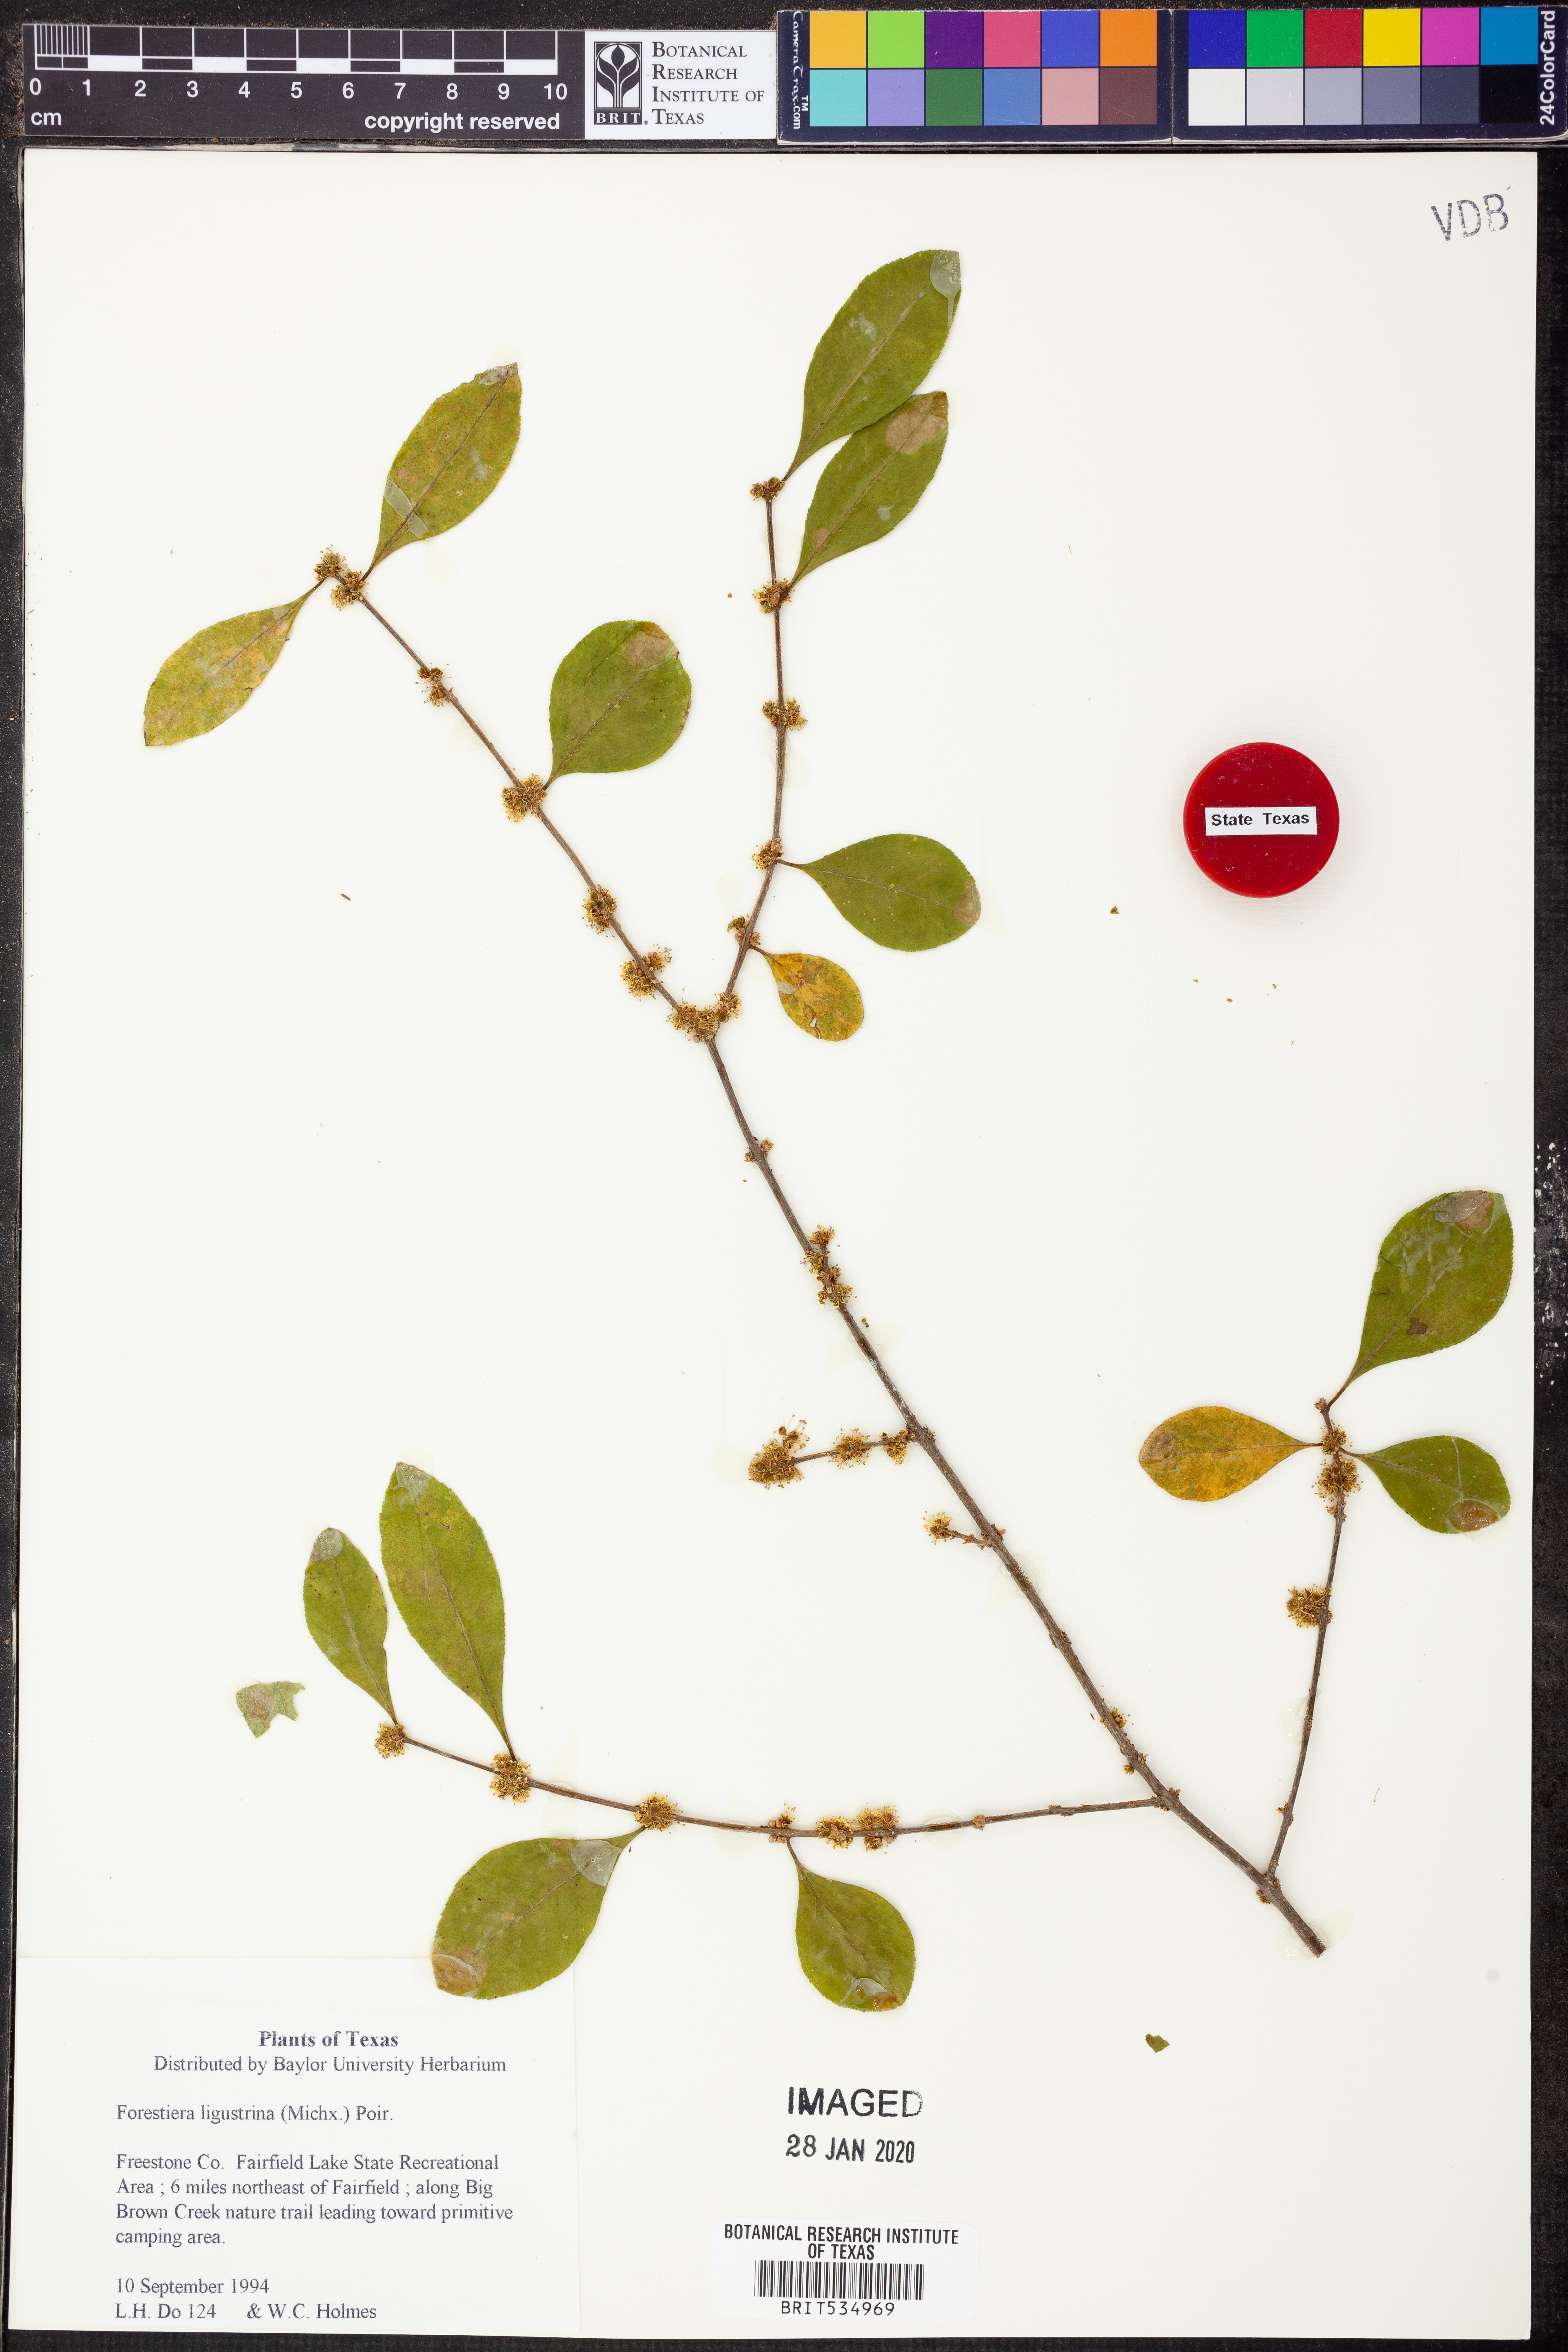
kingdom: Plantae
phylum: Tracheophyta
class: Magnoliopsida
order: Lamiales
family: Oleaceae
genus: Forestiera
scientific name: Forestiera ligustrina
